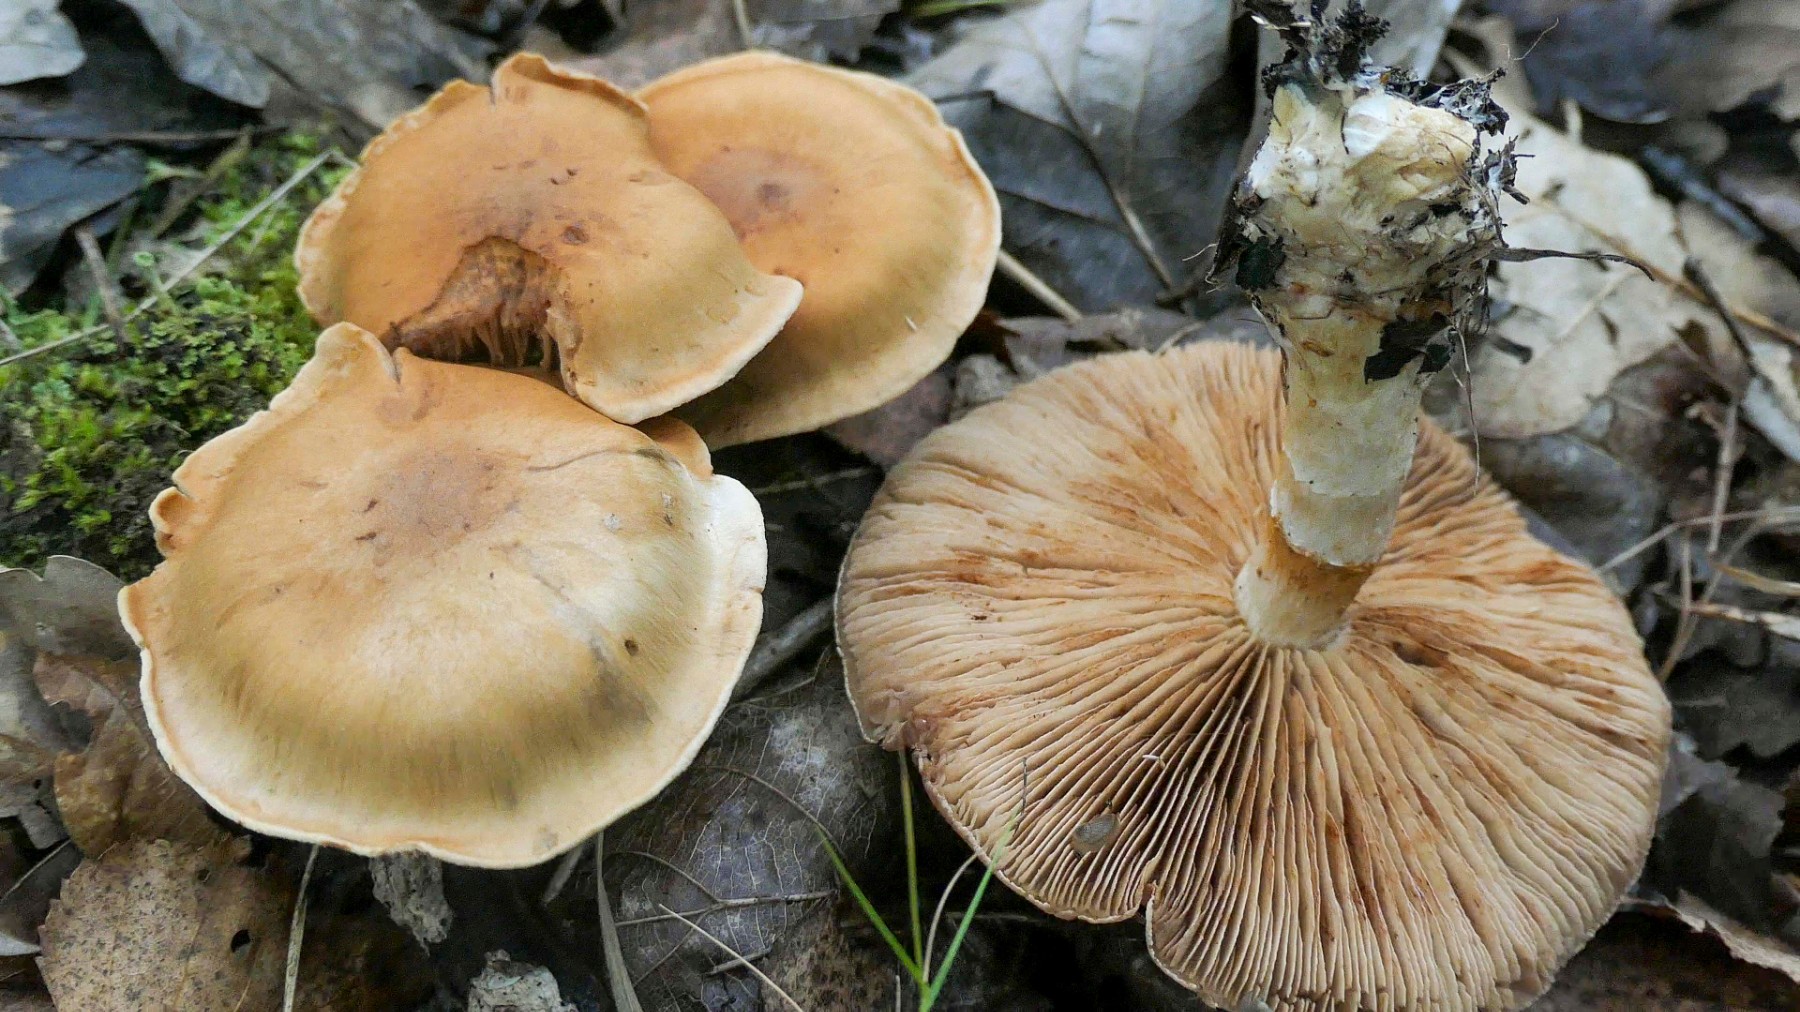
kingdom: Fungi
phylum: Basidiomycota
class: Agaricomycetes
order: Agaricales
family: Cortinariaceae
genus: Cortinarius
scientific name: Cortinarius
